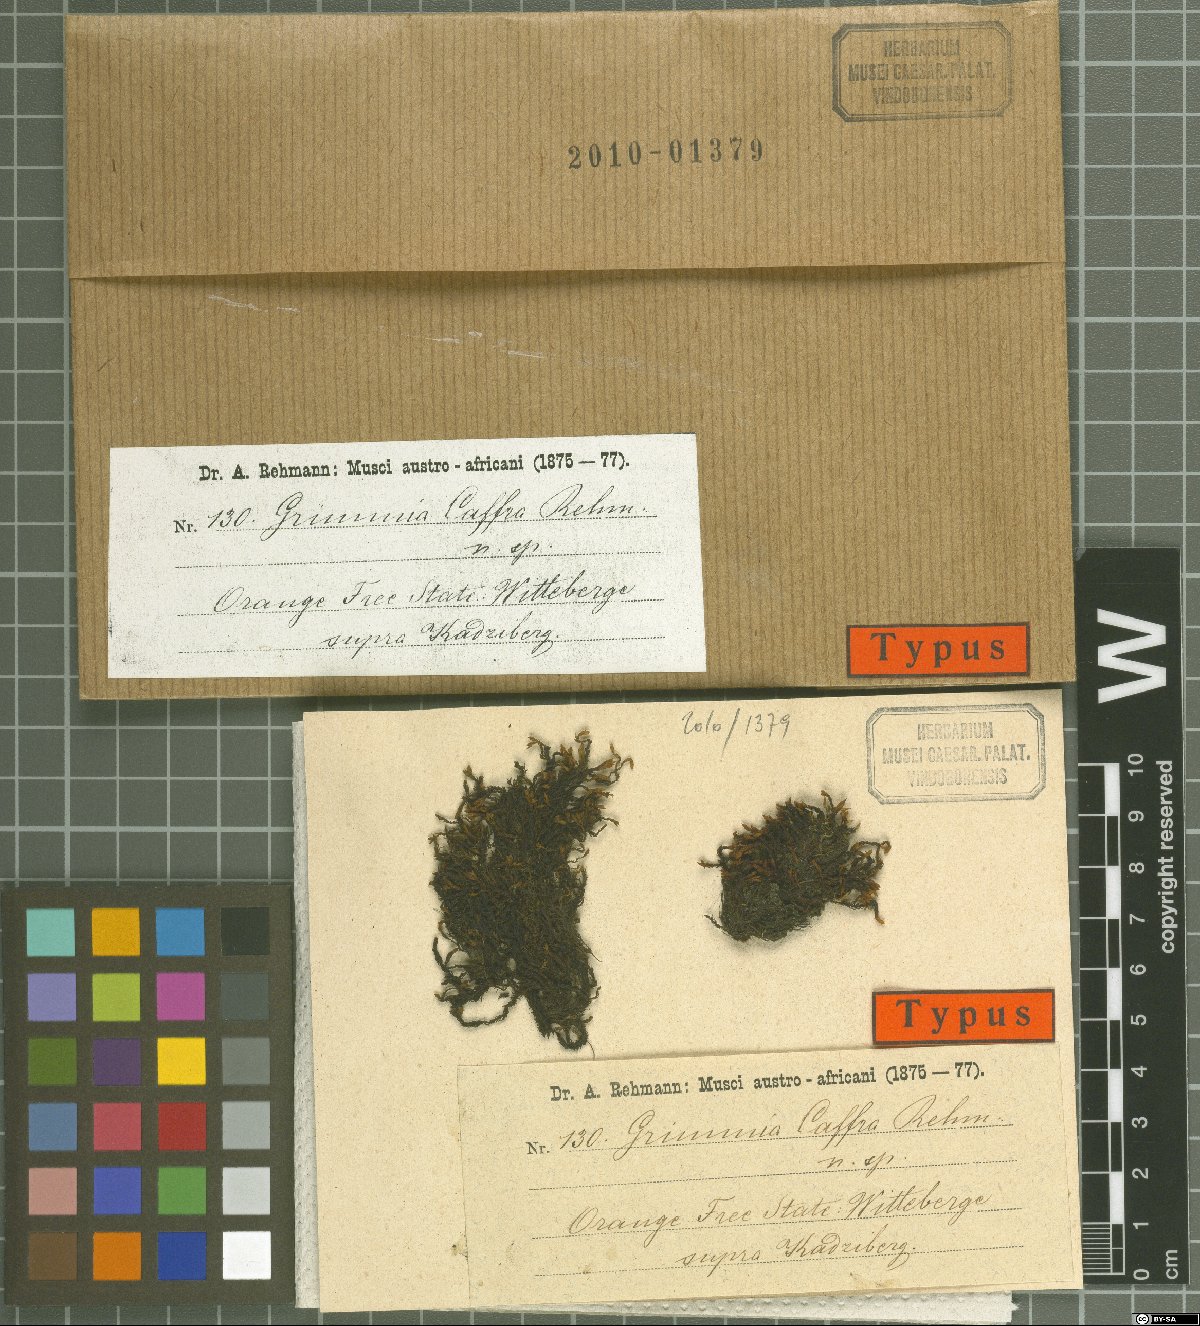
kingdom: Plantae
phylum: Bryophyta
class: Bryopsida
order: Grimmiales
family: Grimmiaceae
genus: Schistidium
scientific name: Schistidium caffrum
